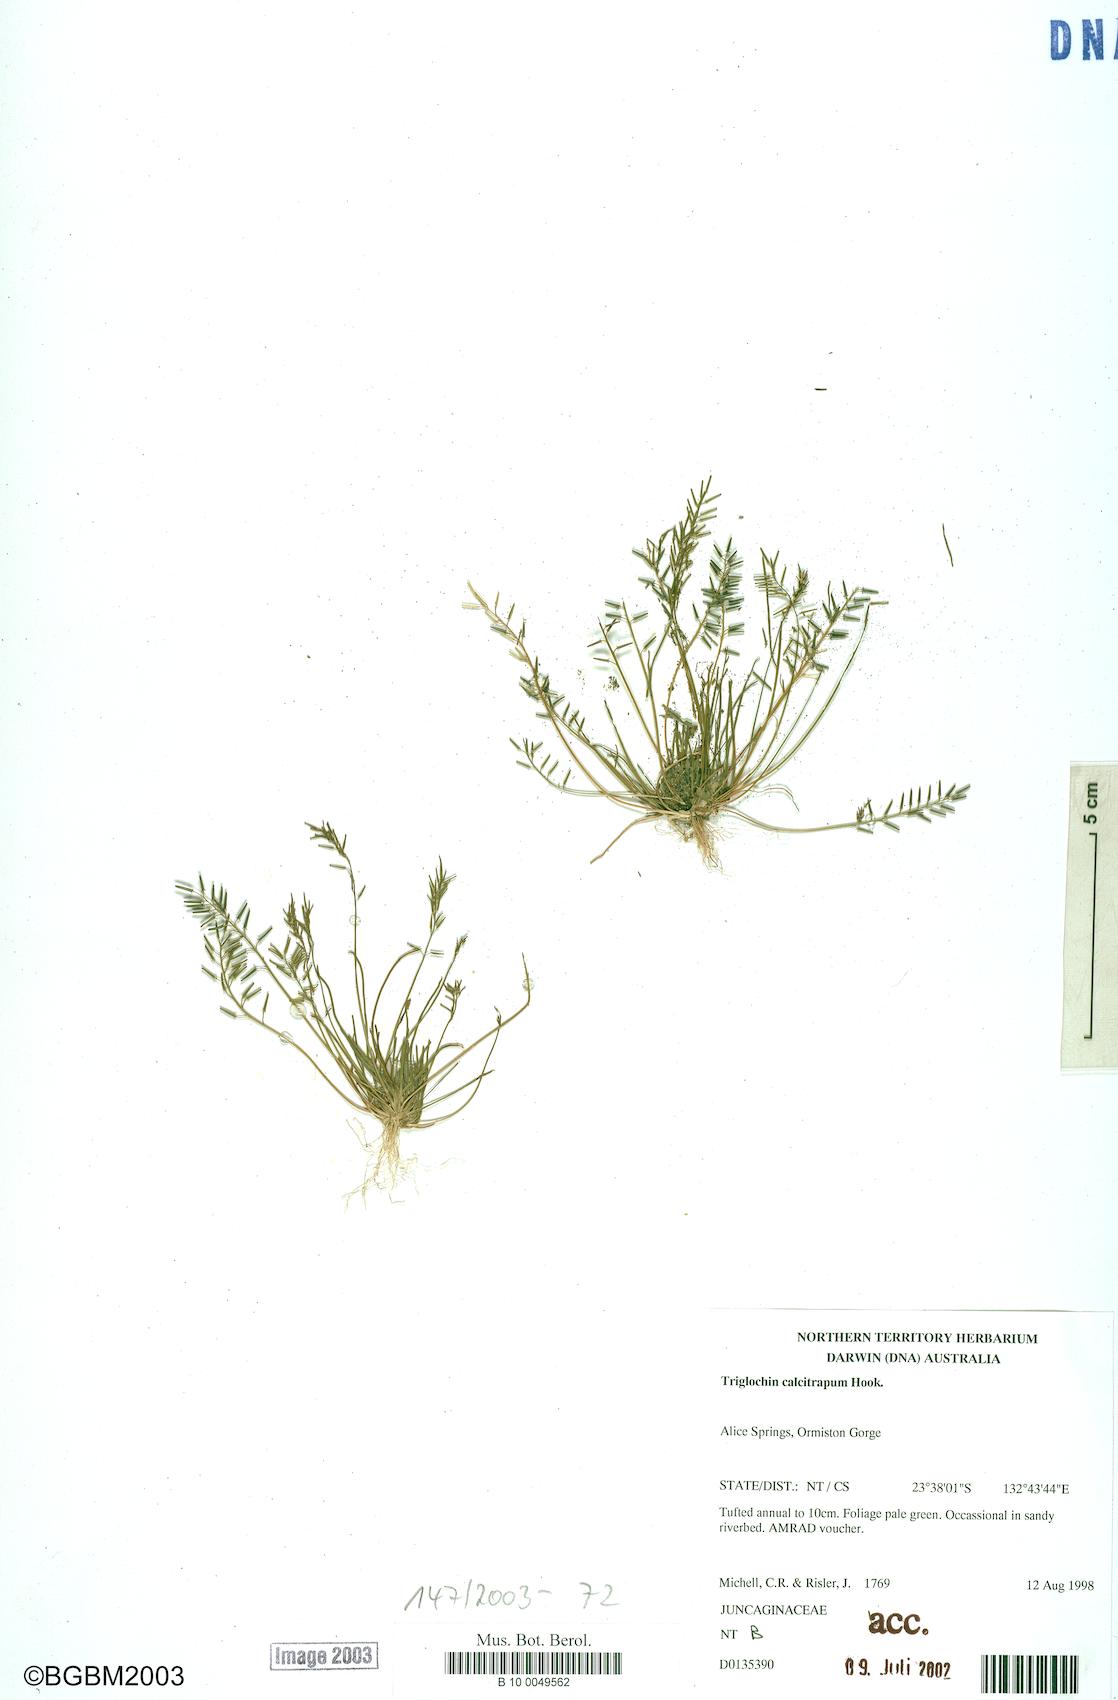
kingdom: Plantae
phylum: Tracheophyta
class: Liliopsida
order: Alismatales
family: Juncaginaceae
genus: Triglochin
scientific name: Triglochin calcitrapa
